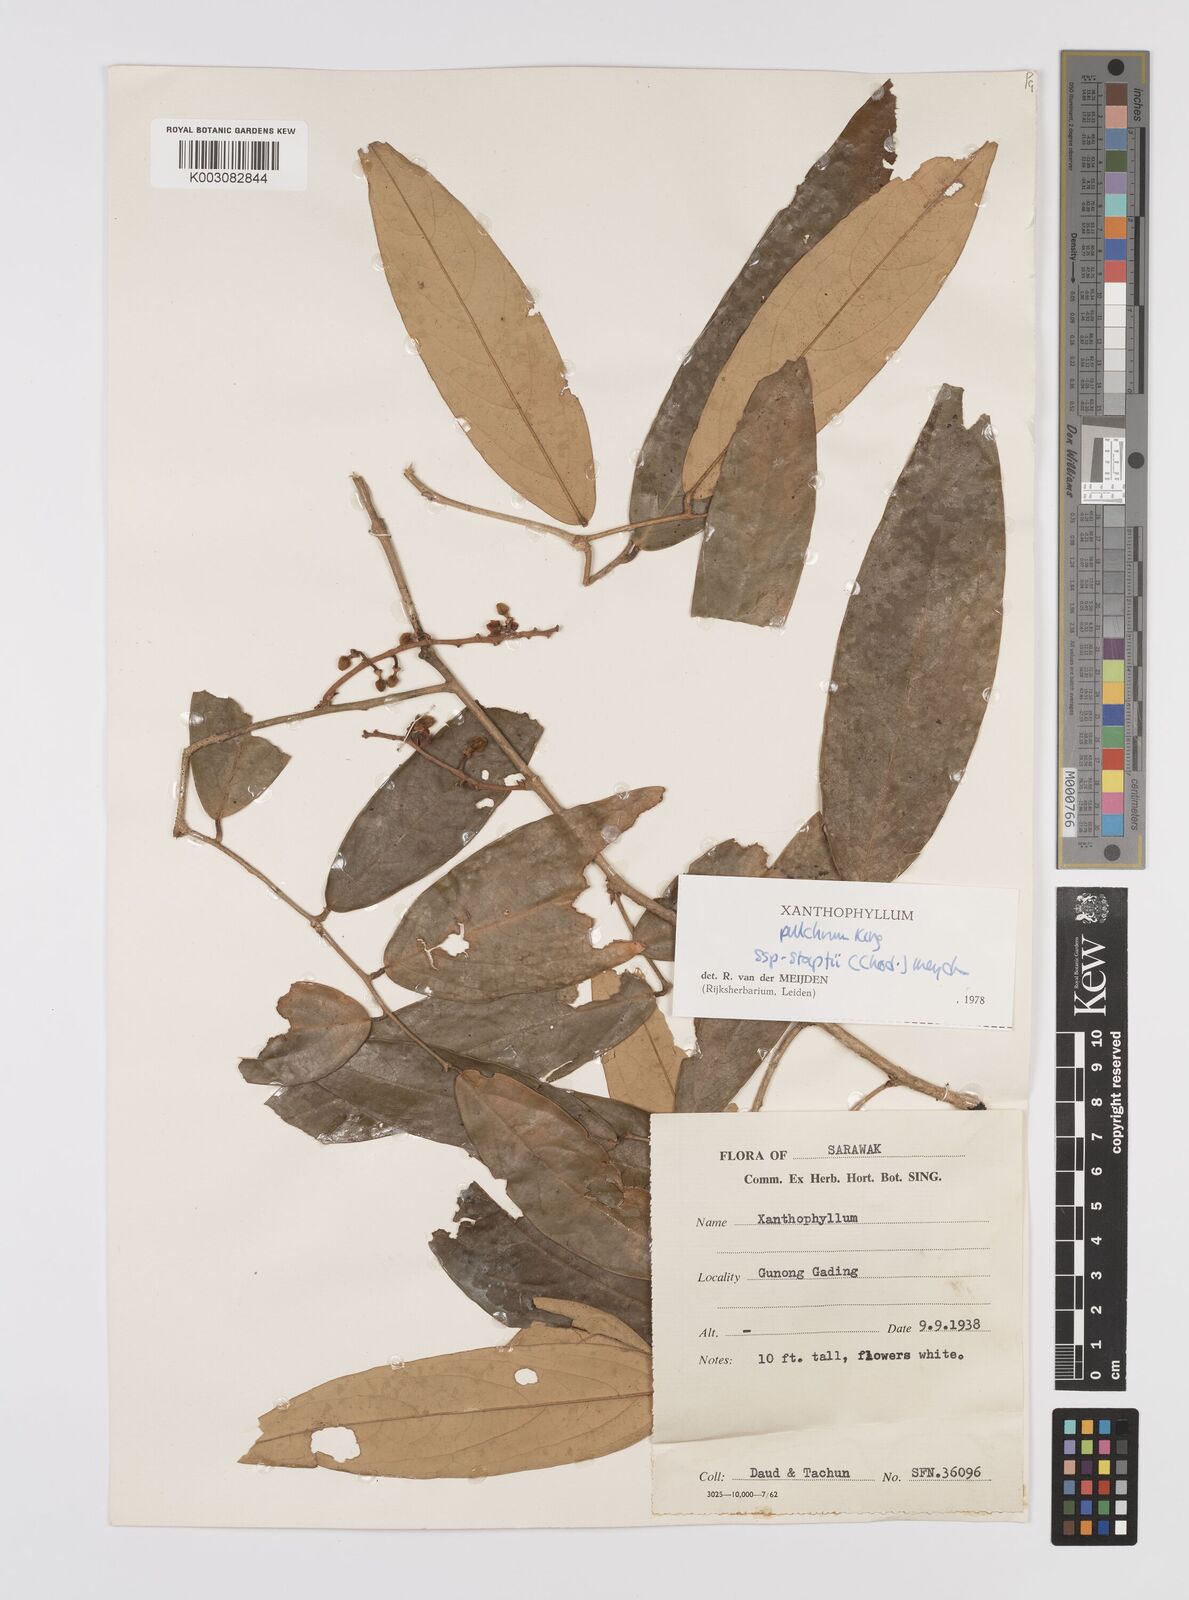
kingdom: Plantae
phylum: Tracheophyta
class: Magnoliopsida
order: Fabales
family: Polygalaceae
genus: Xanthophyllum
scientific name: Xanthophyllum pulchrum
